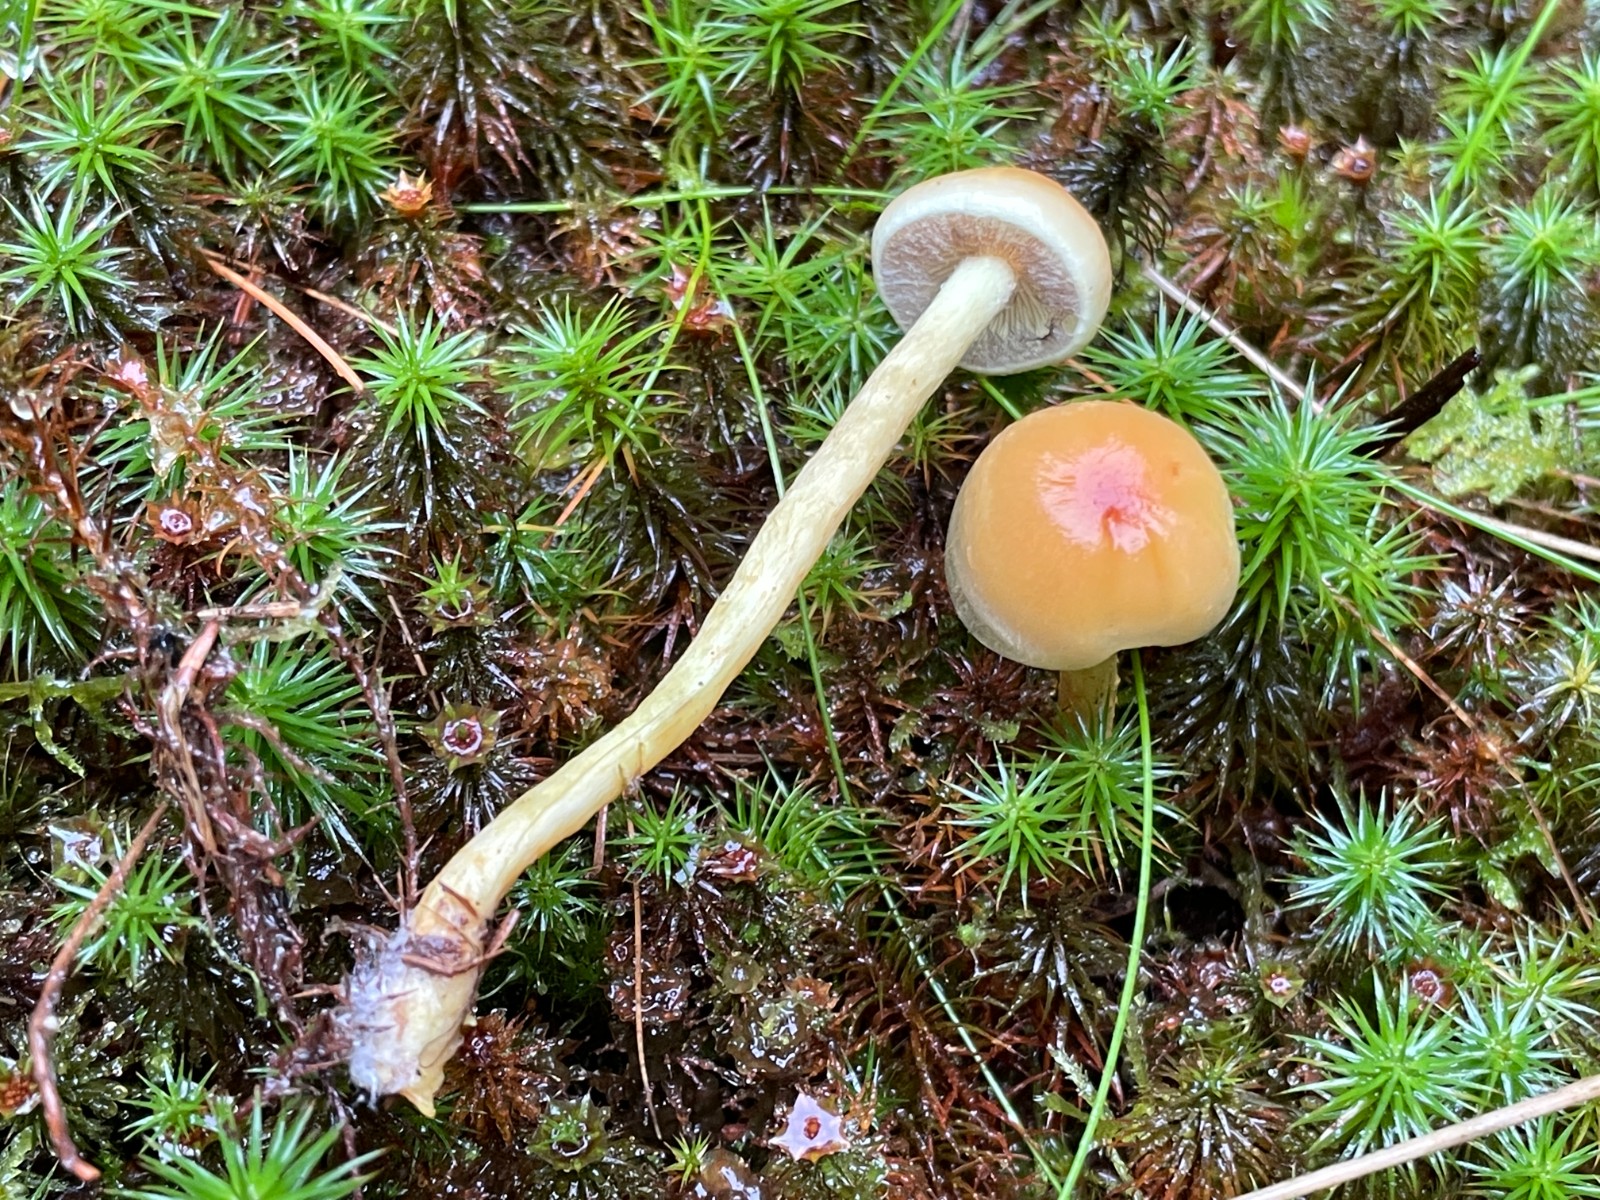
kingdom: Fungi
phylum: Basidiomycota
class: Agaricomycetes
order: Agaricales
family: Strophariaceae
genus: Hypholoma
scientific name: Hypholoma fasciculare
